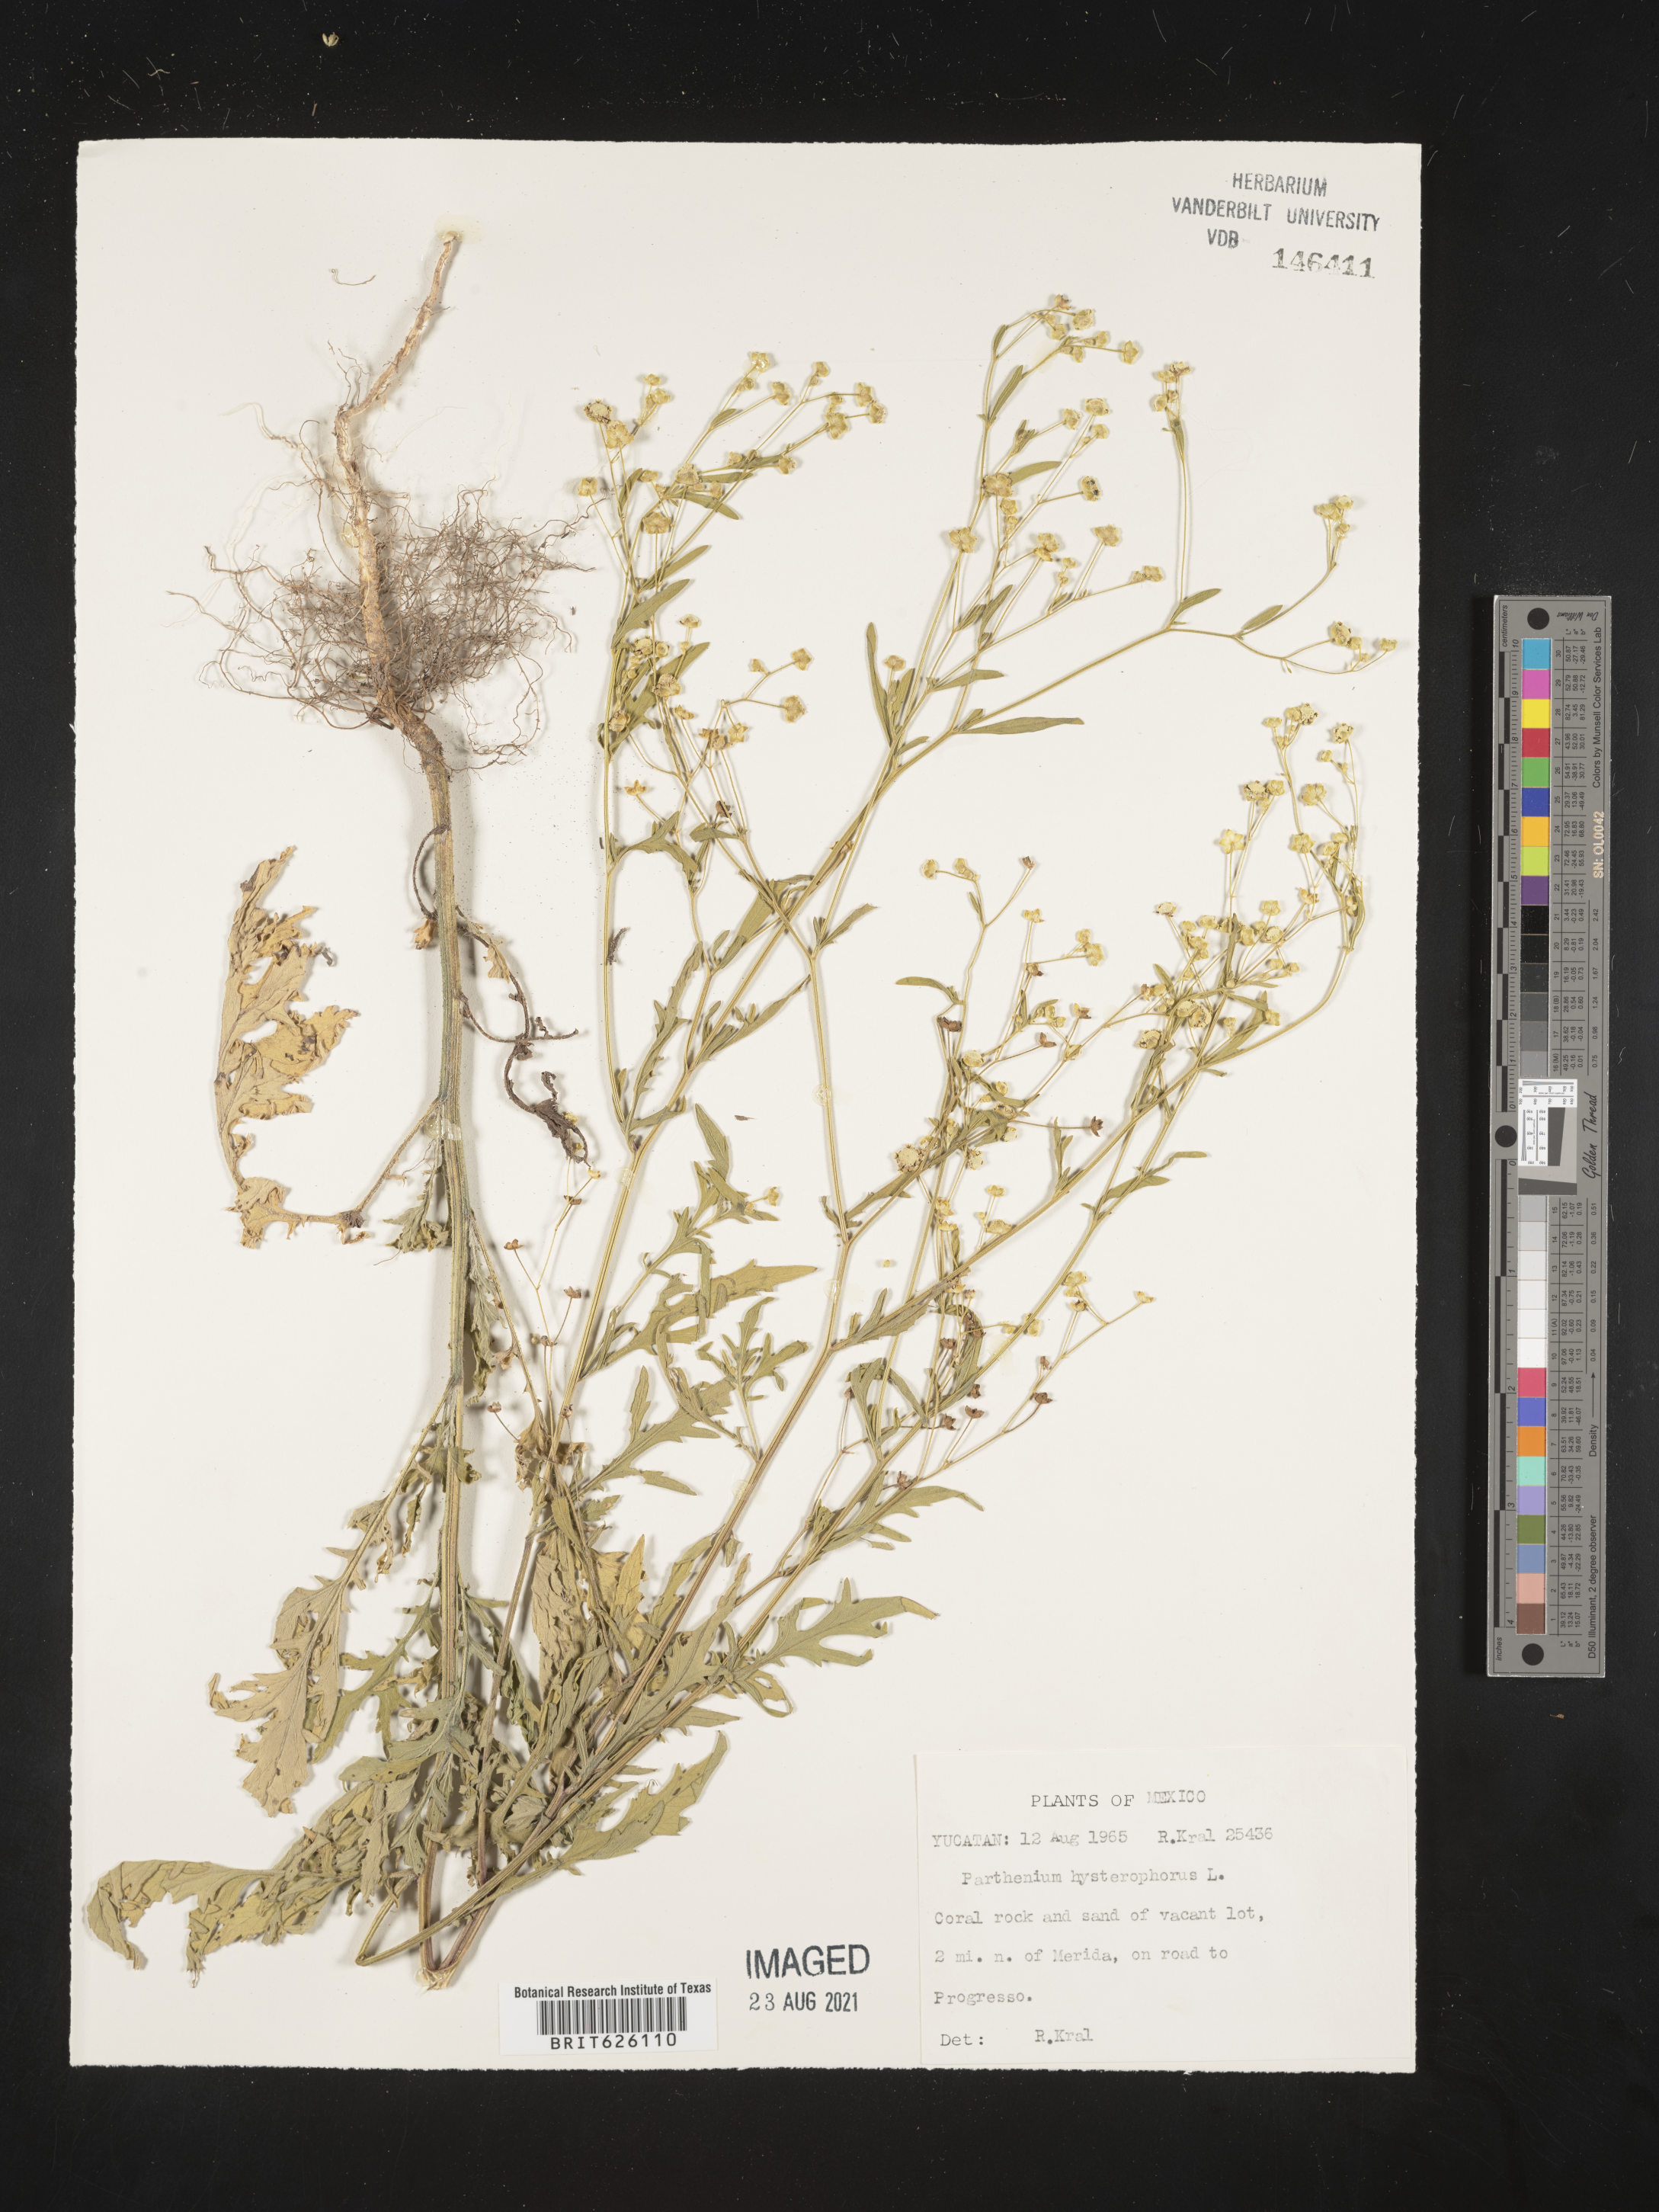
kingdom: Plantae
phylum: Tracheophyta
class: Magnoliopsida
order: Asterales
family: Asteraceae
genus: Parthenium
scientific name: Parthenium
